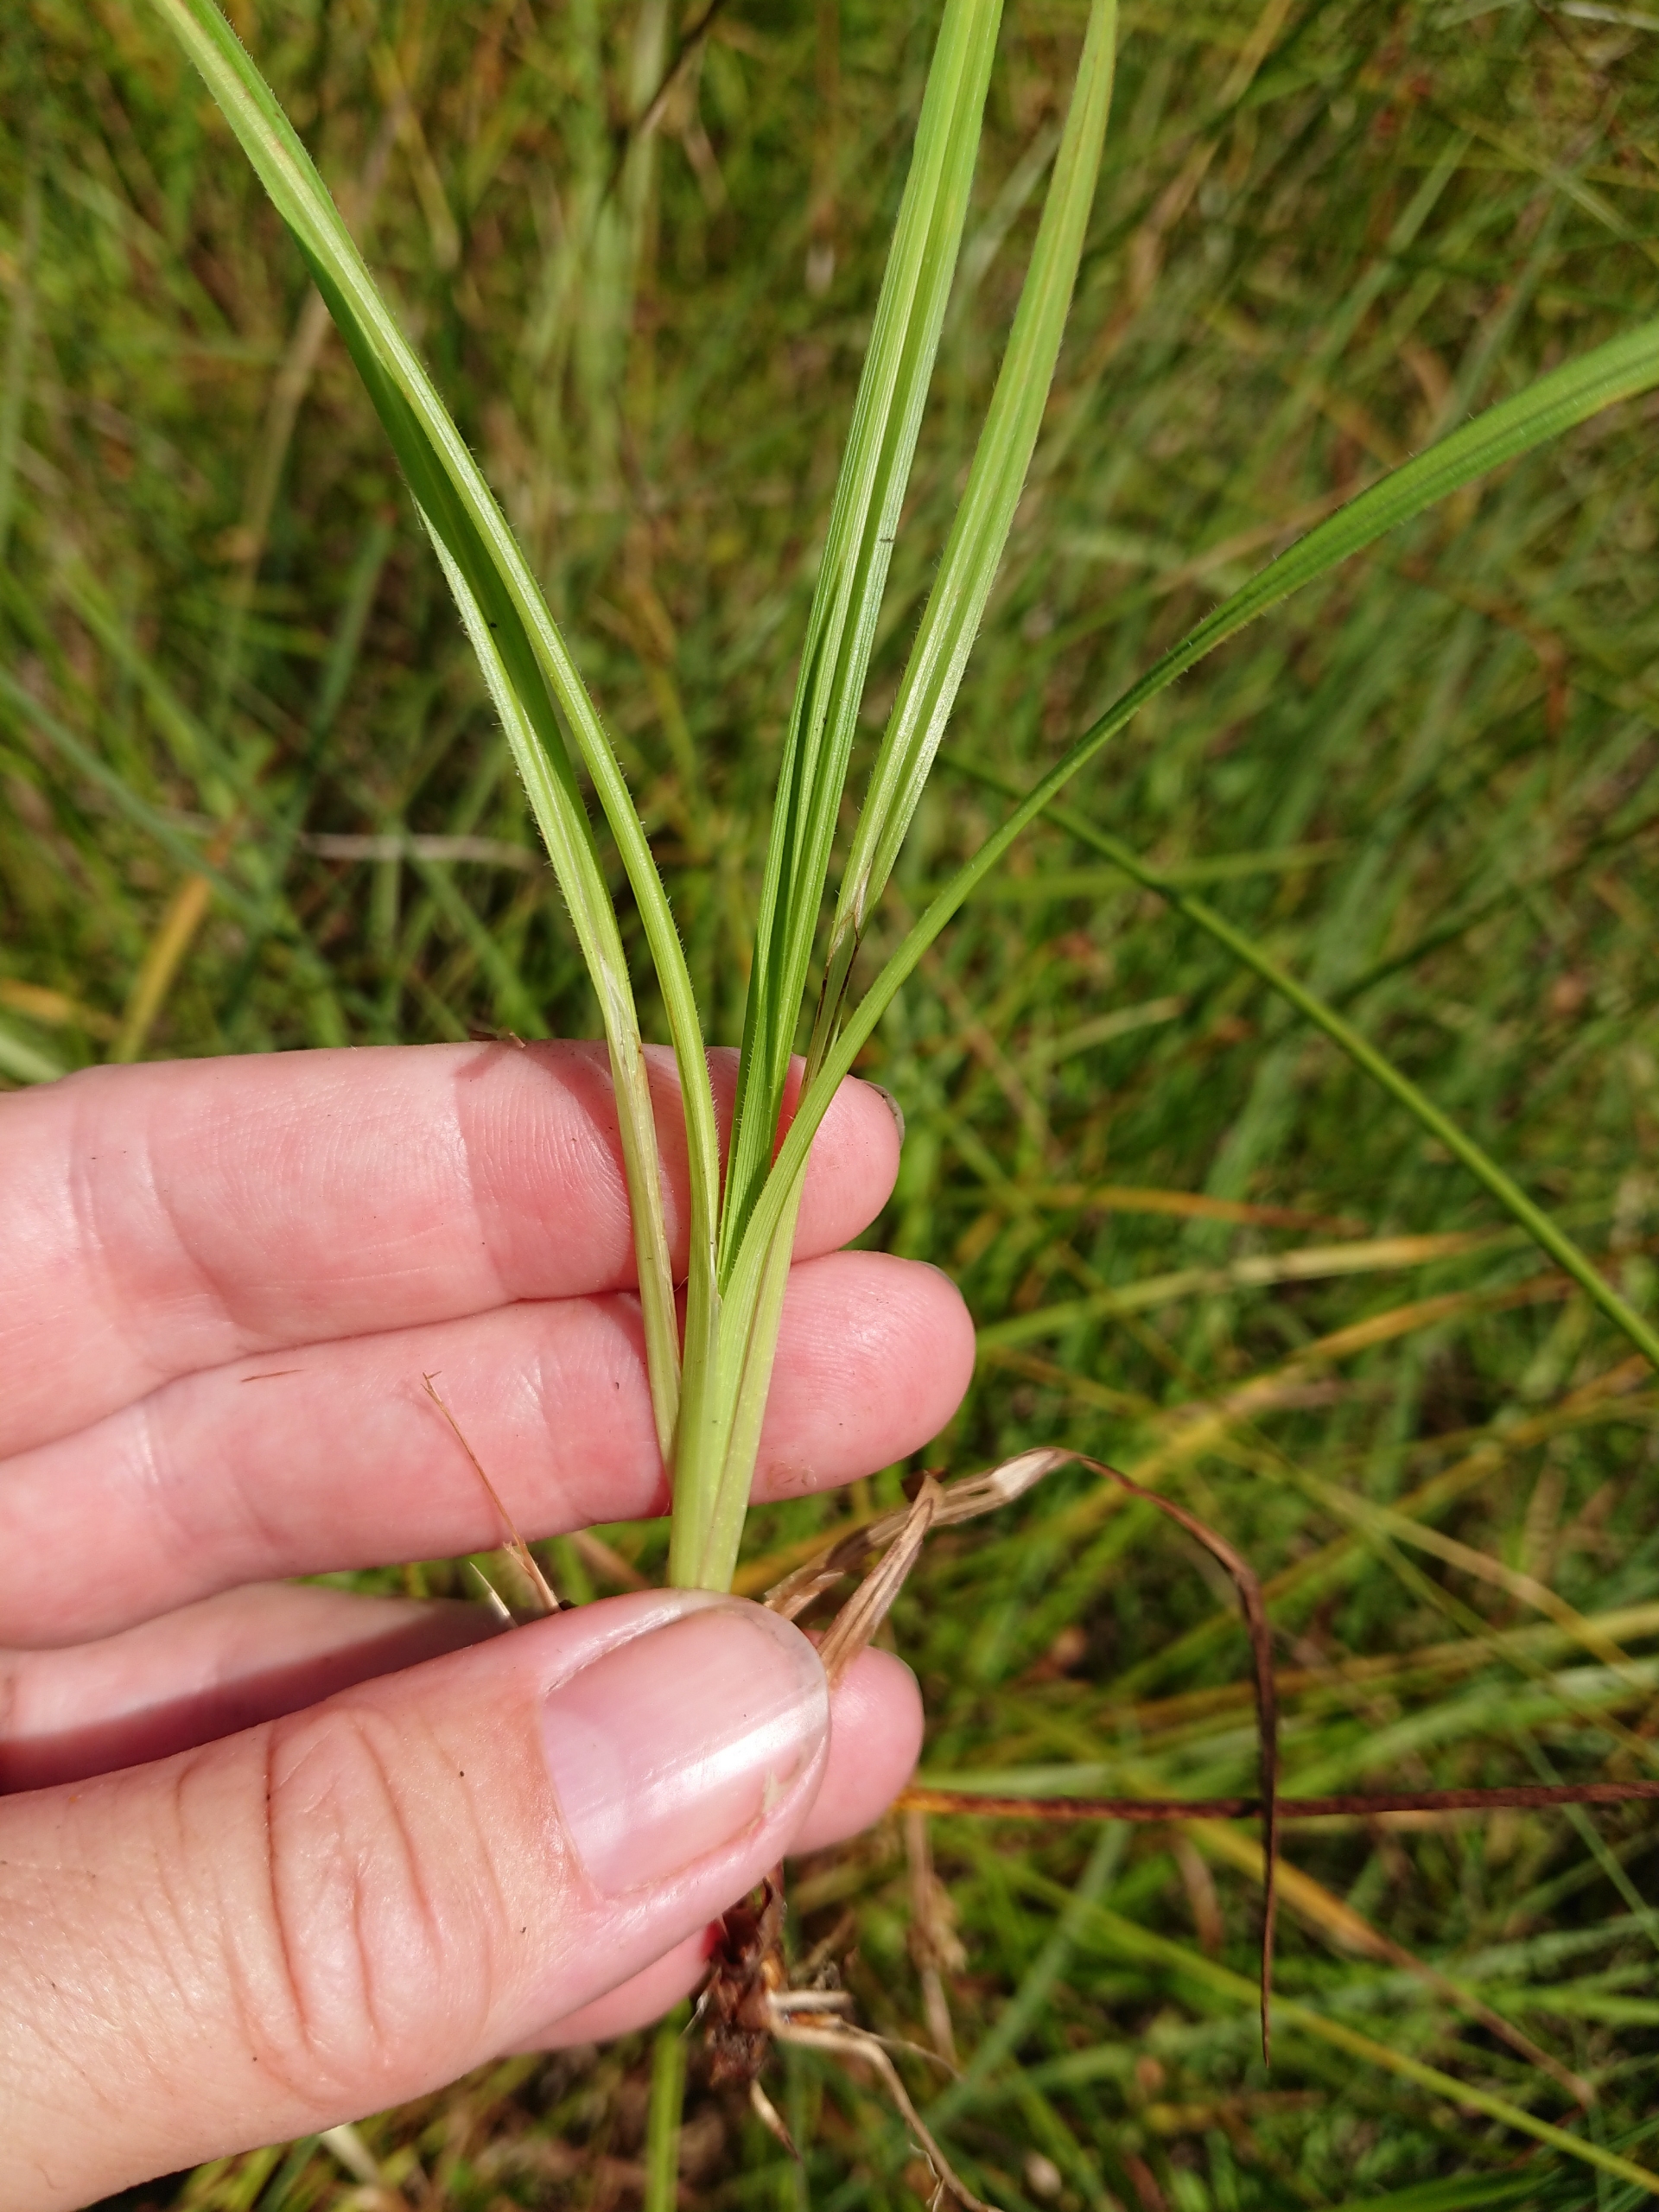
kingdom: Plantae
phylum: Tracheophyta
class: Liliopsida
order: Poales
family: Cyperaceae
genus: Carex
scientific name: Carex pallescens
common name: Bleg star
